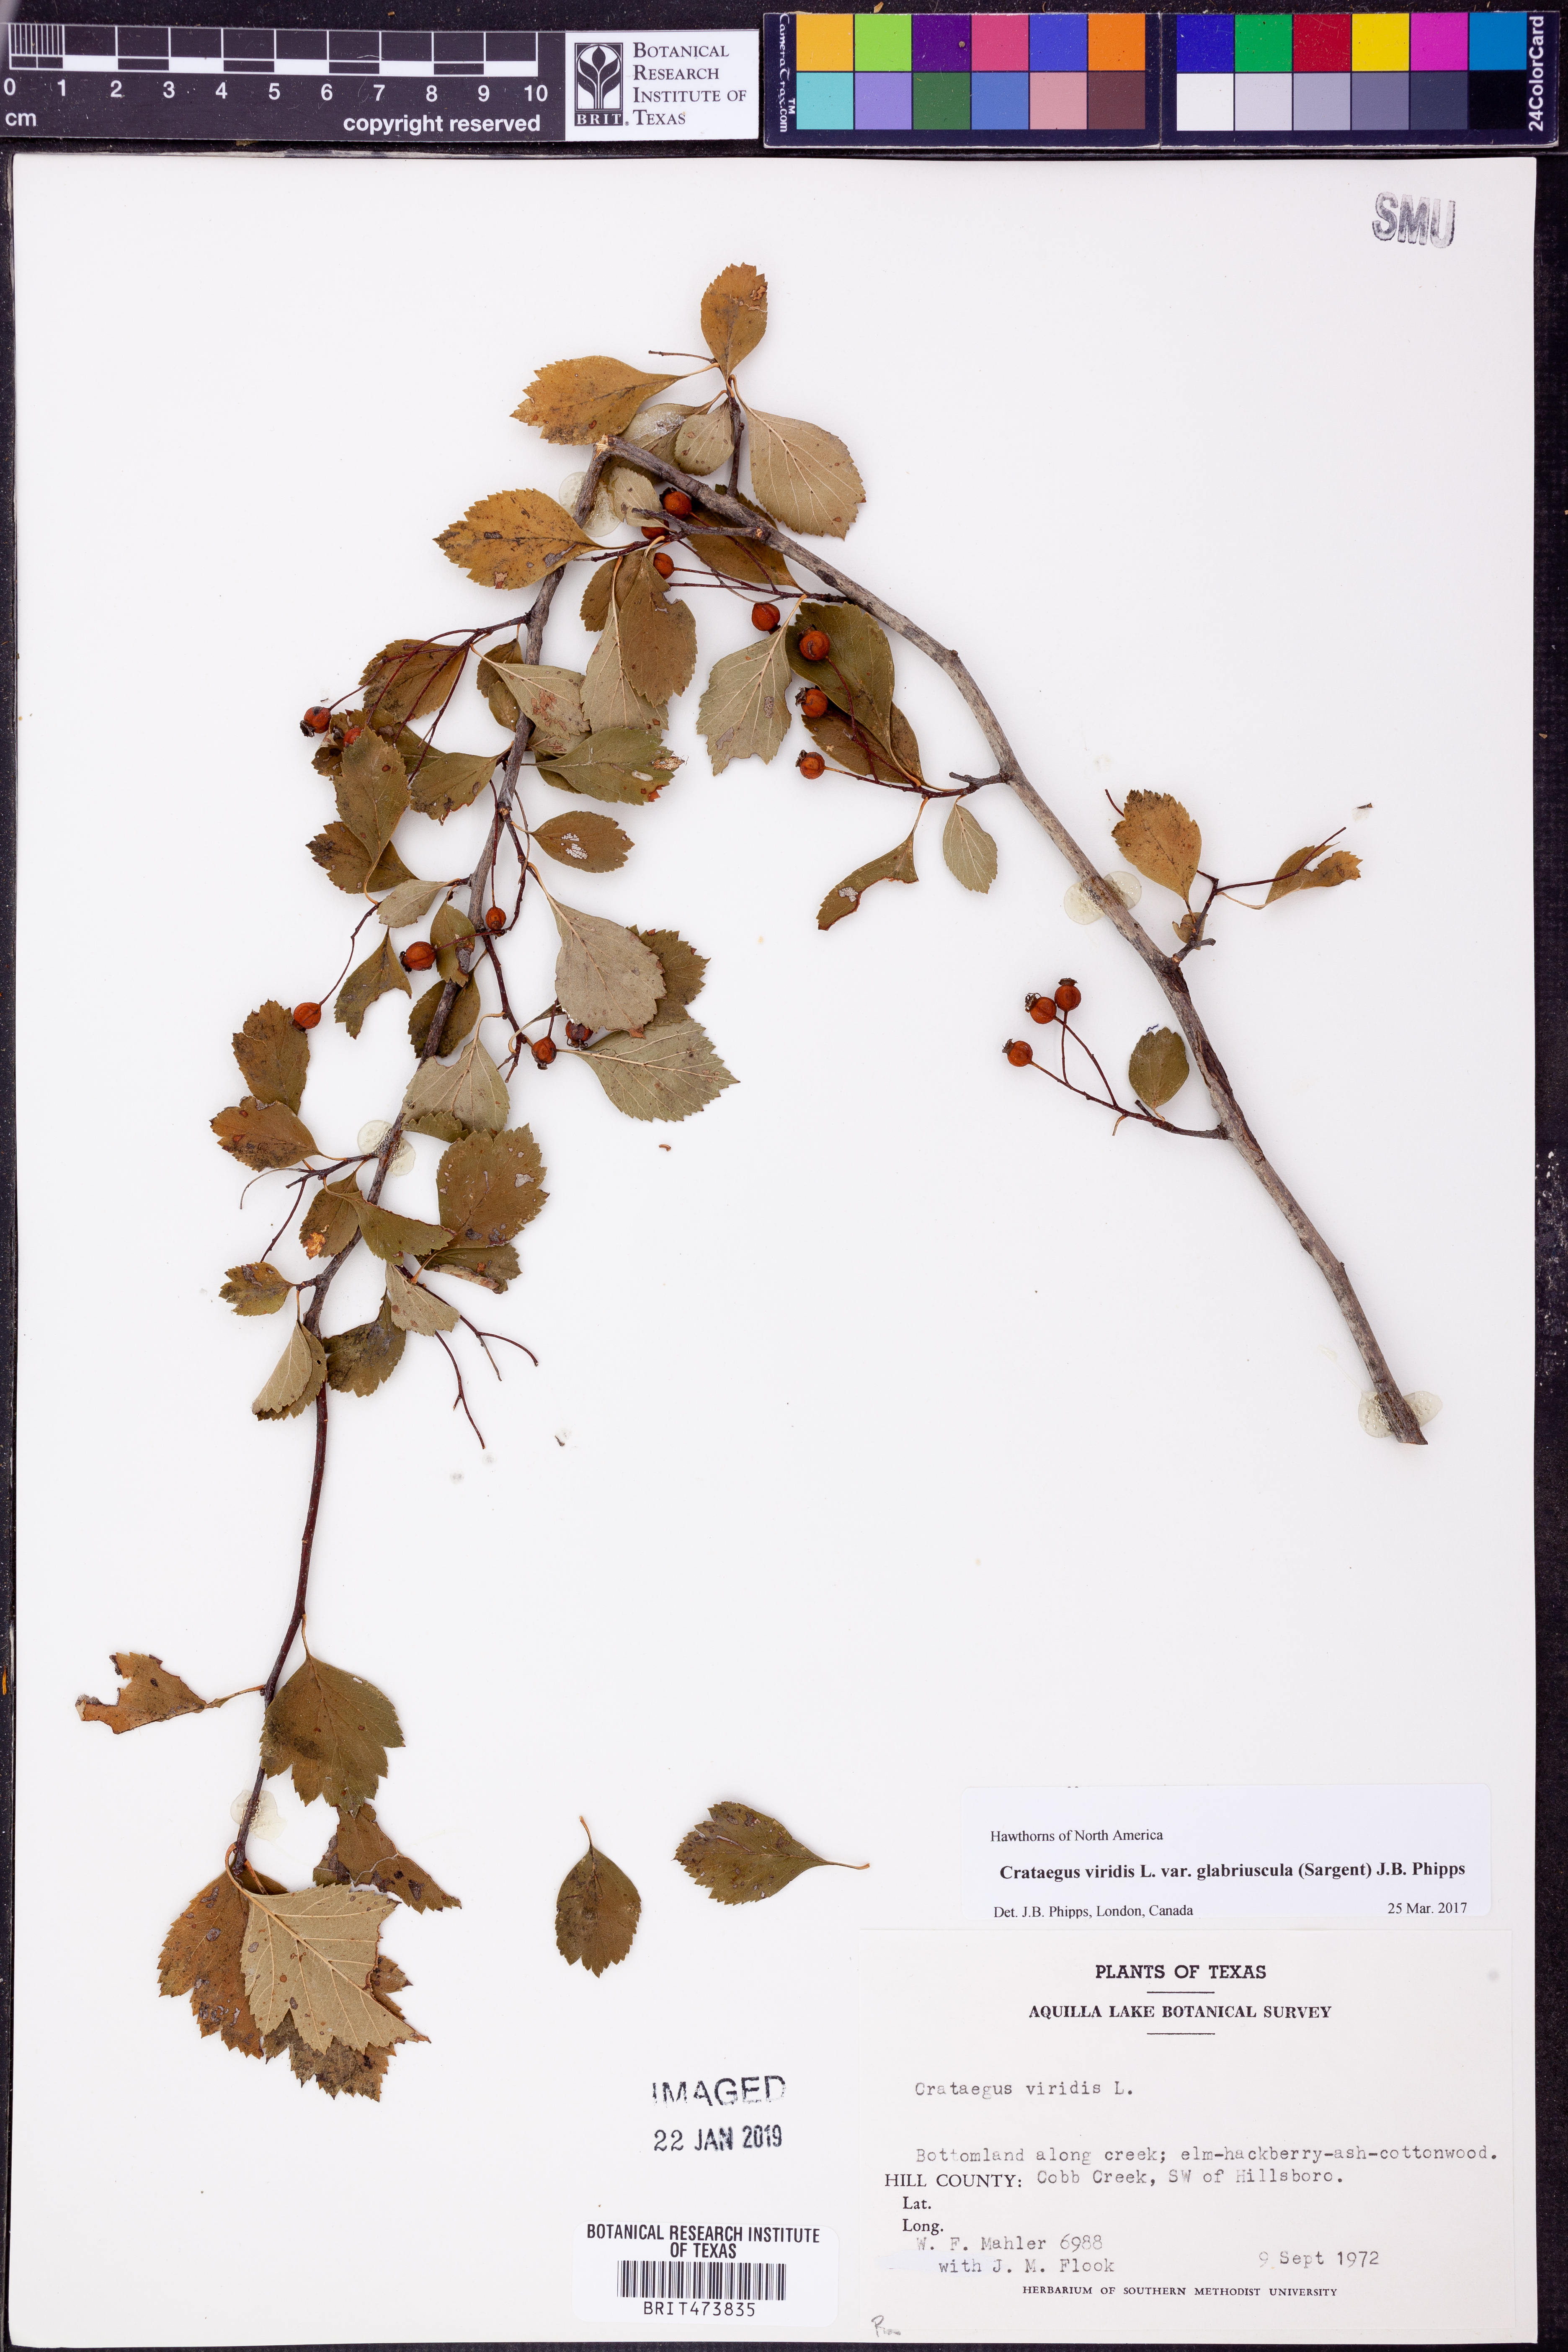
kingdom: Plantae
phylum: Tracheophyta
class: Magnoliopsida
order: Rosales
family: Rosaceae
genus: Crataegus
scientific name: Crataegus viridis
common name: Southernthorn
